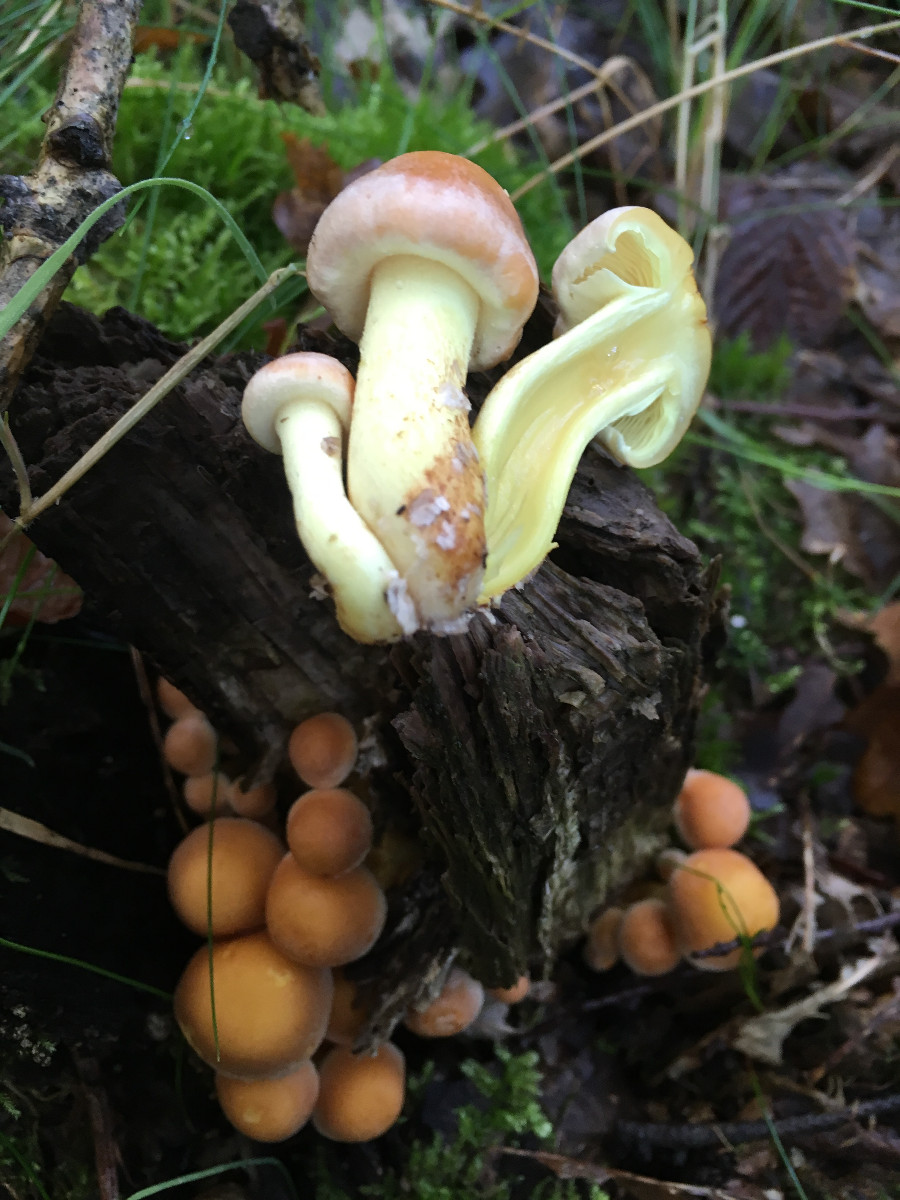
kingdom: Fungi
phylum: Basidiomycota
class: Agaricomycetes
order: Agaricales
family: Strophariaceae
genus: Hypholoma
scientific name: Hypholoma fasciculare
